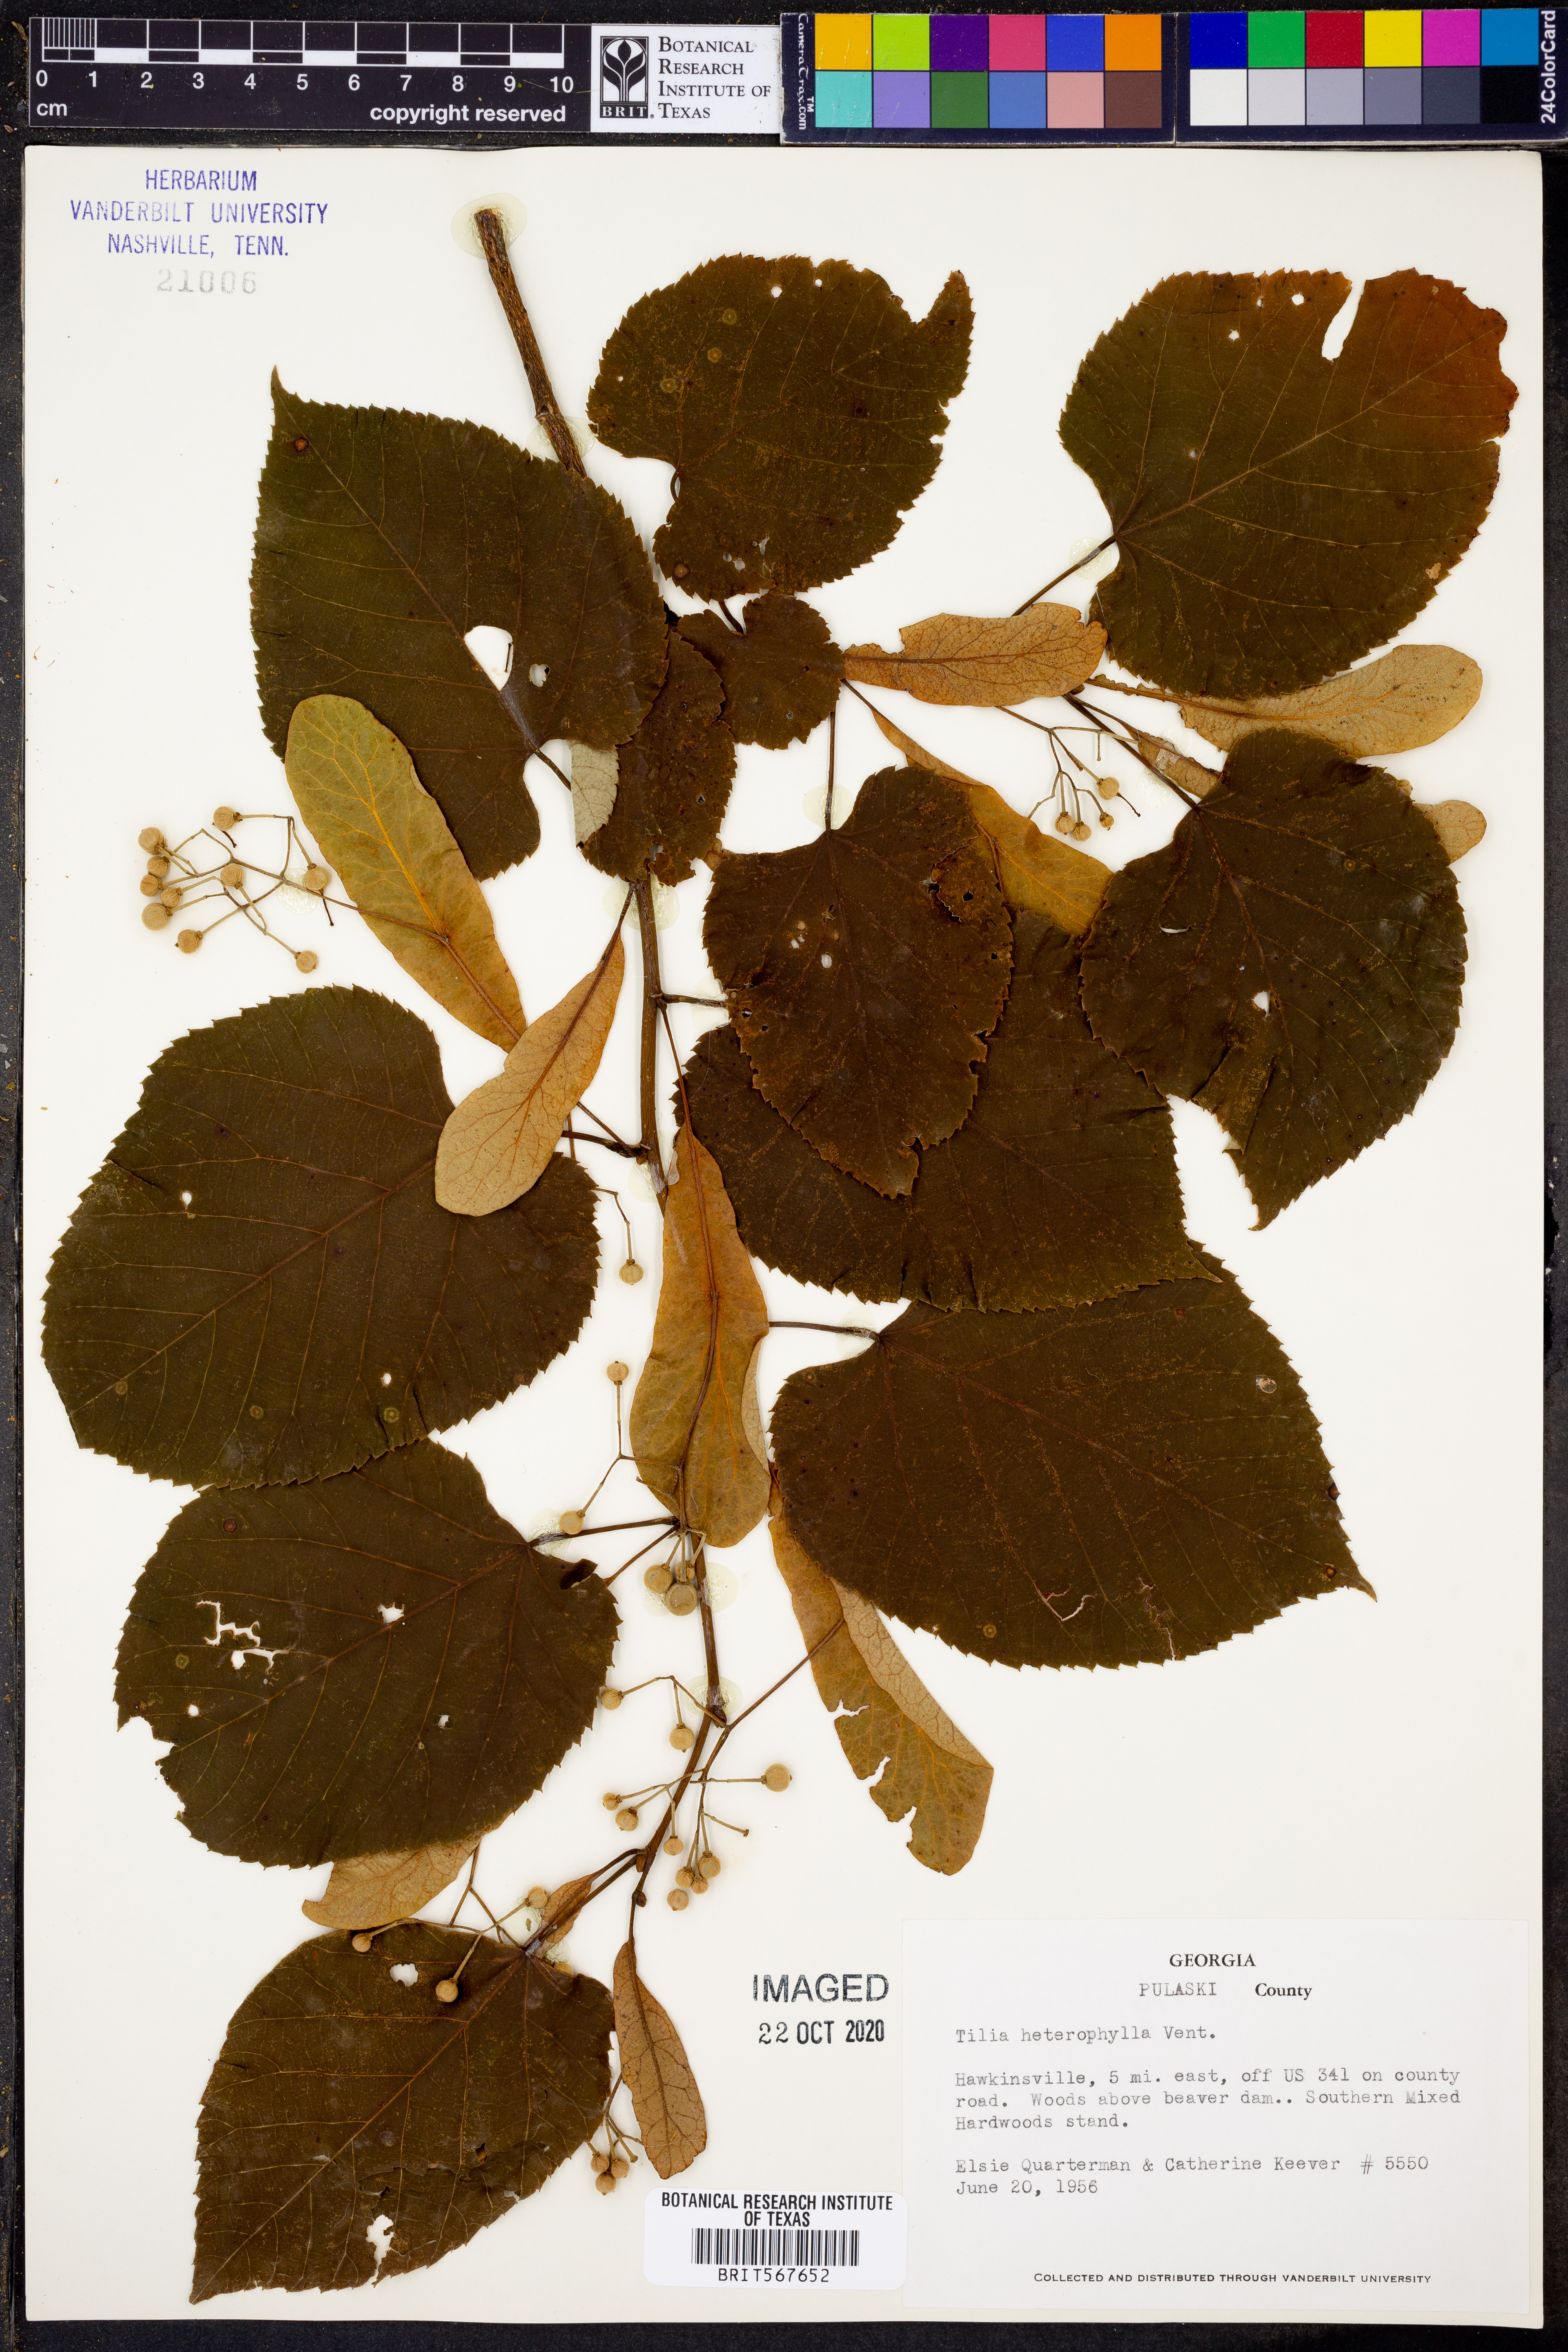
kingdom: Plantae
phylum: Tracheophyta
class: Magnoliopsida
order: Malvales
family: Malvaceae
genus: Tilia
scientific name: Tilia americana
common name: Basswood
